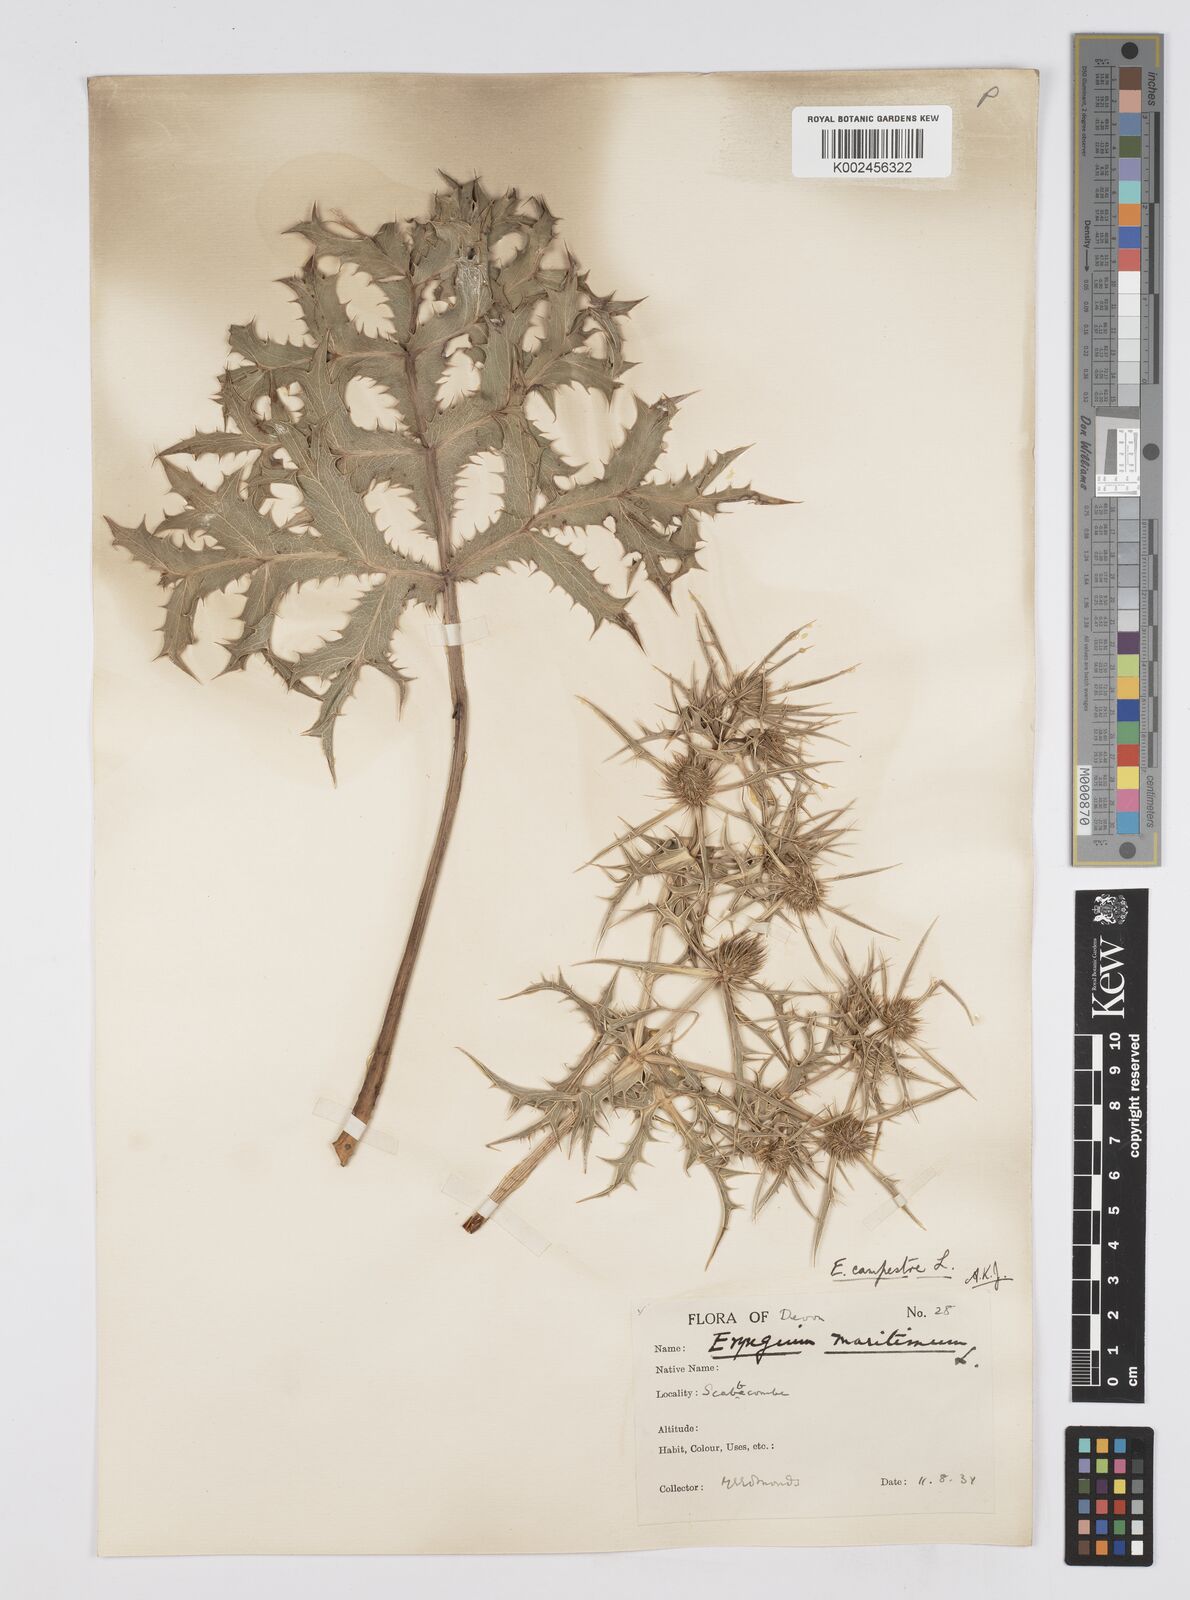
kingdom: Plantae
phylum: Tracheophyta
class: Magnoliopsida
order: Apiales
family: Apiaceae
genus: Eryngium
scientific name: Eryngium campestre
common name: Field eryngo
